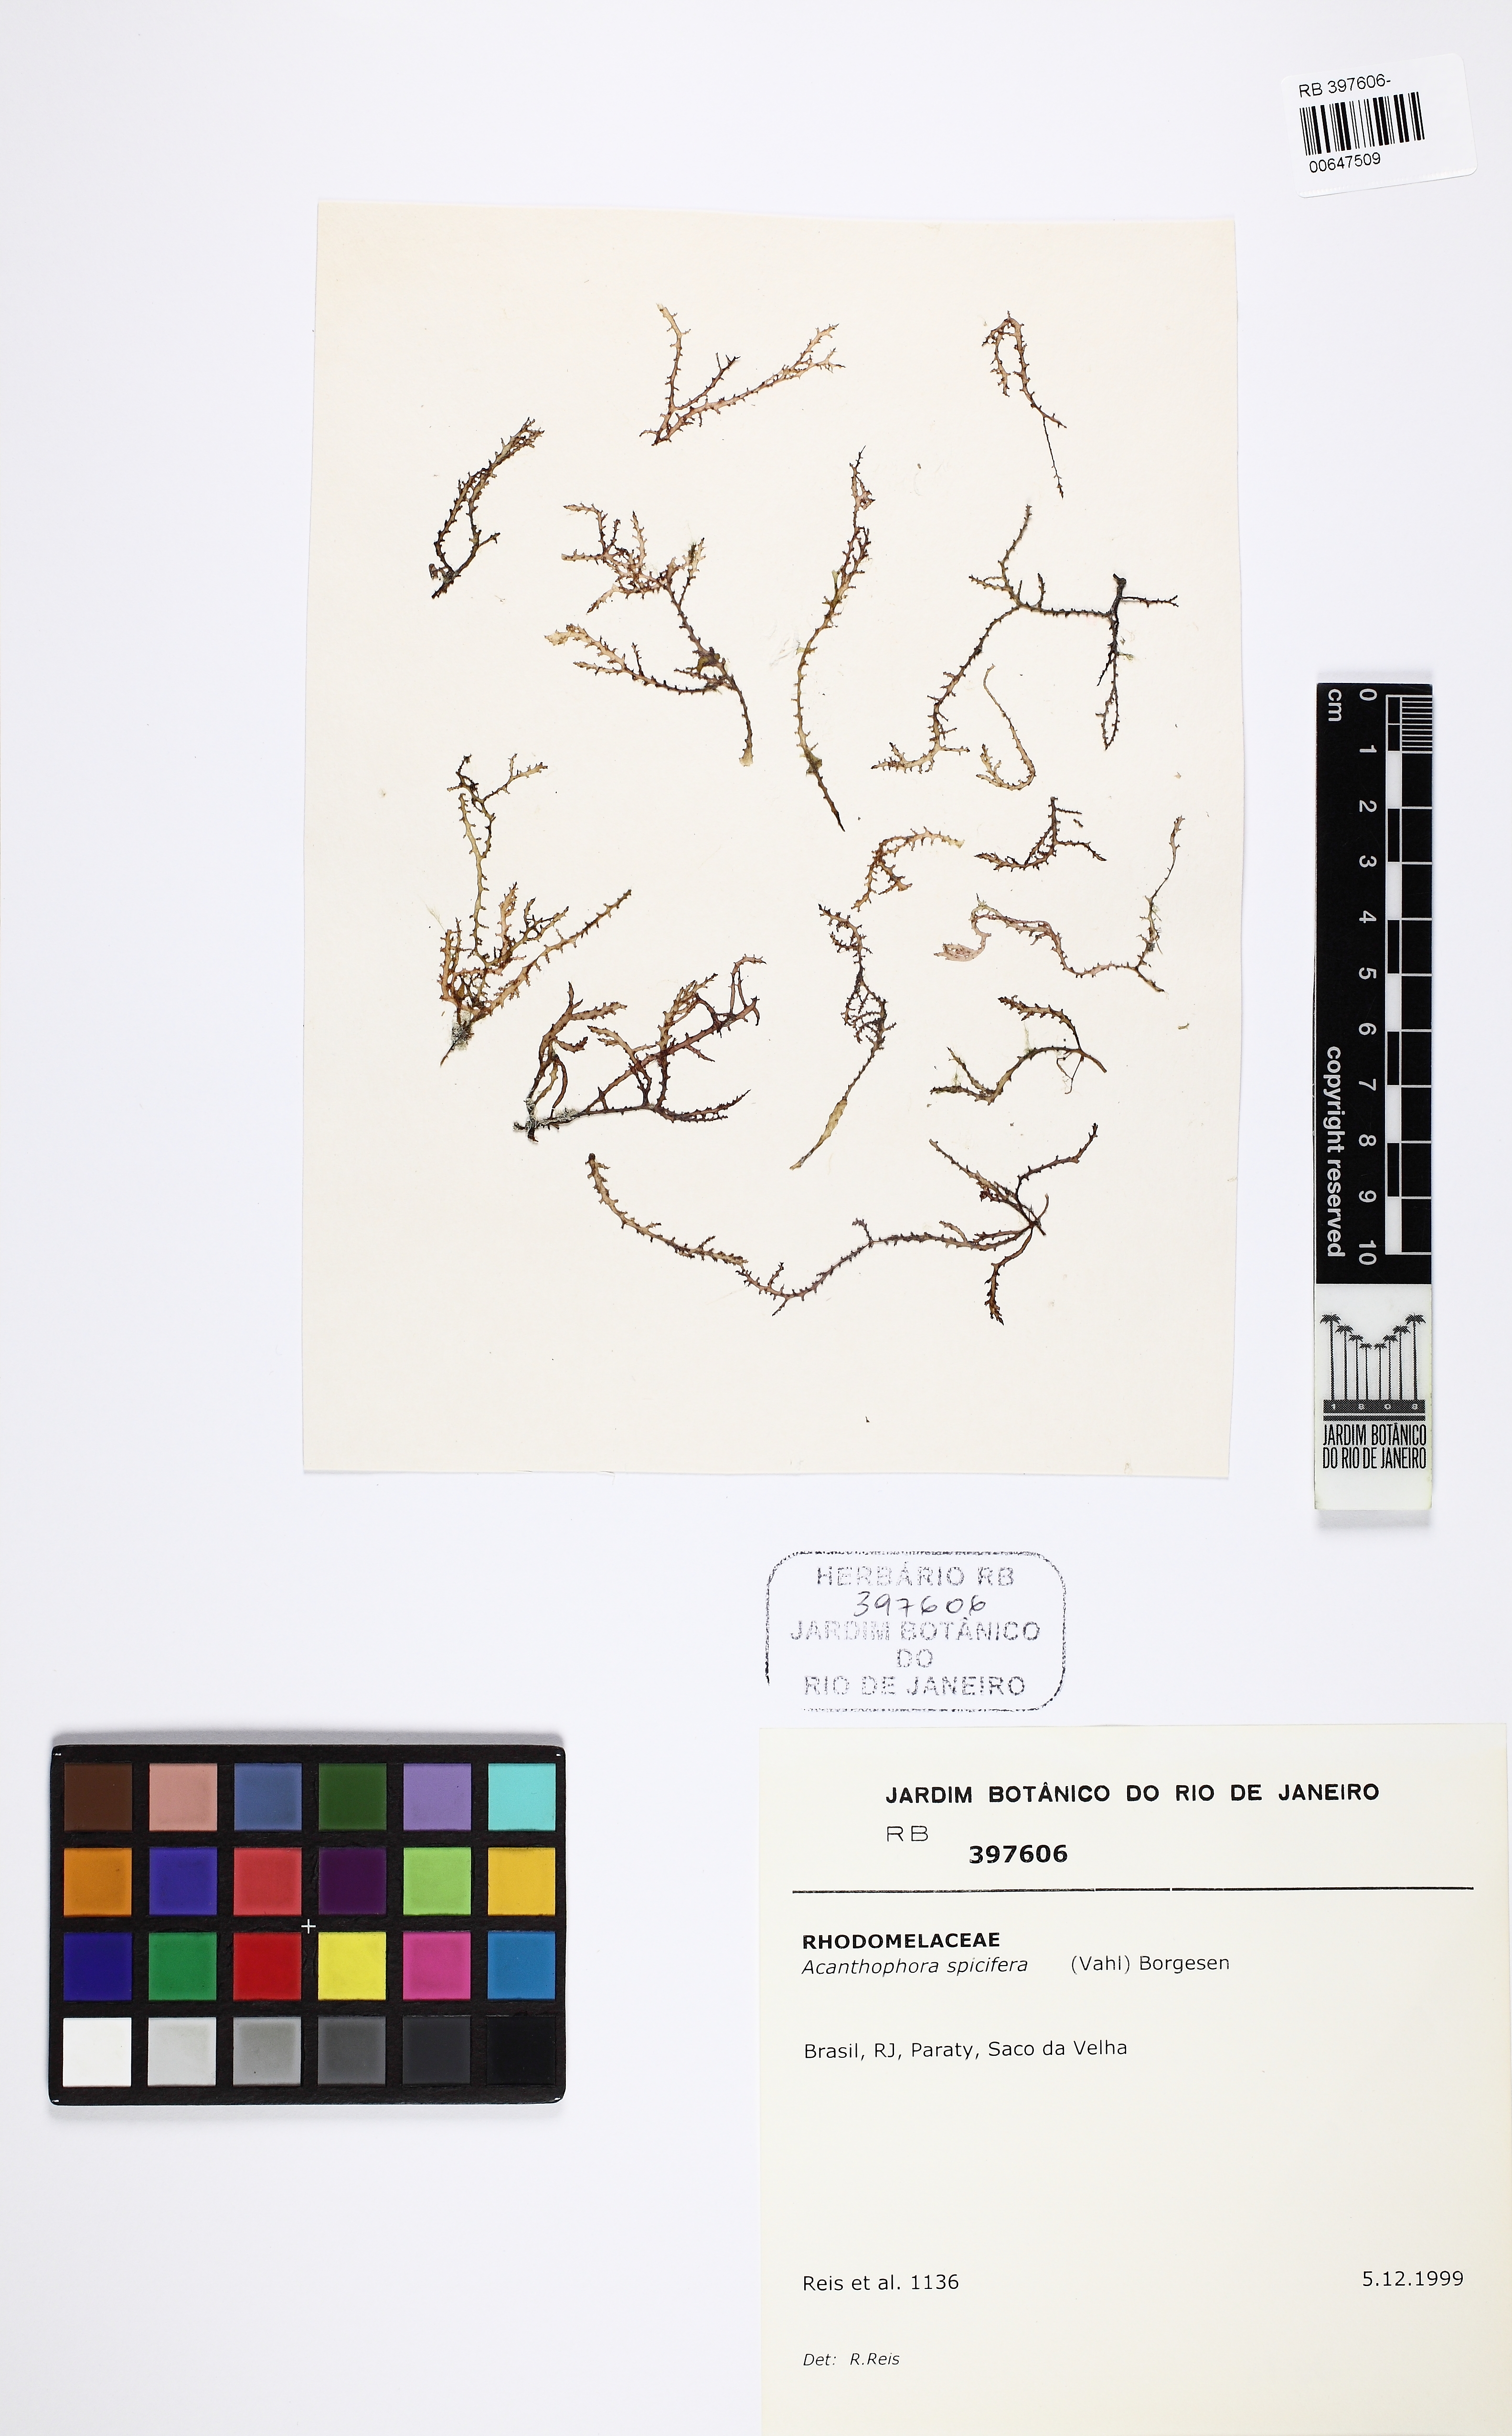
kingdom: Plantae
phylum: Rhodophyta
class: Florideophyceae
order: Ceramiales
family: Rhodomelaceae
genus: Acanthophora
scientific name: Acanthophora spicifera
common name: Red algae
